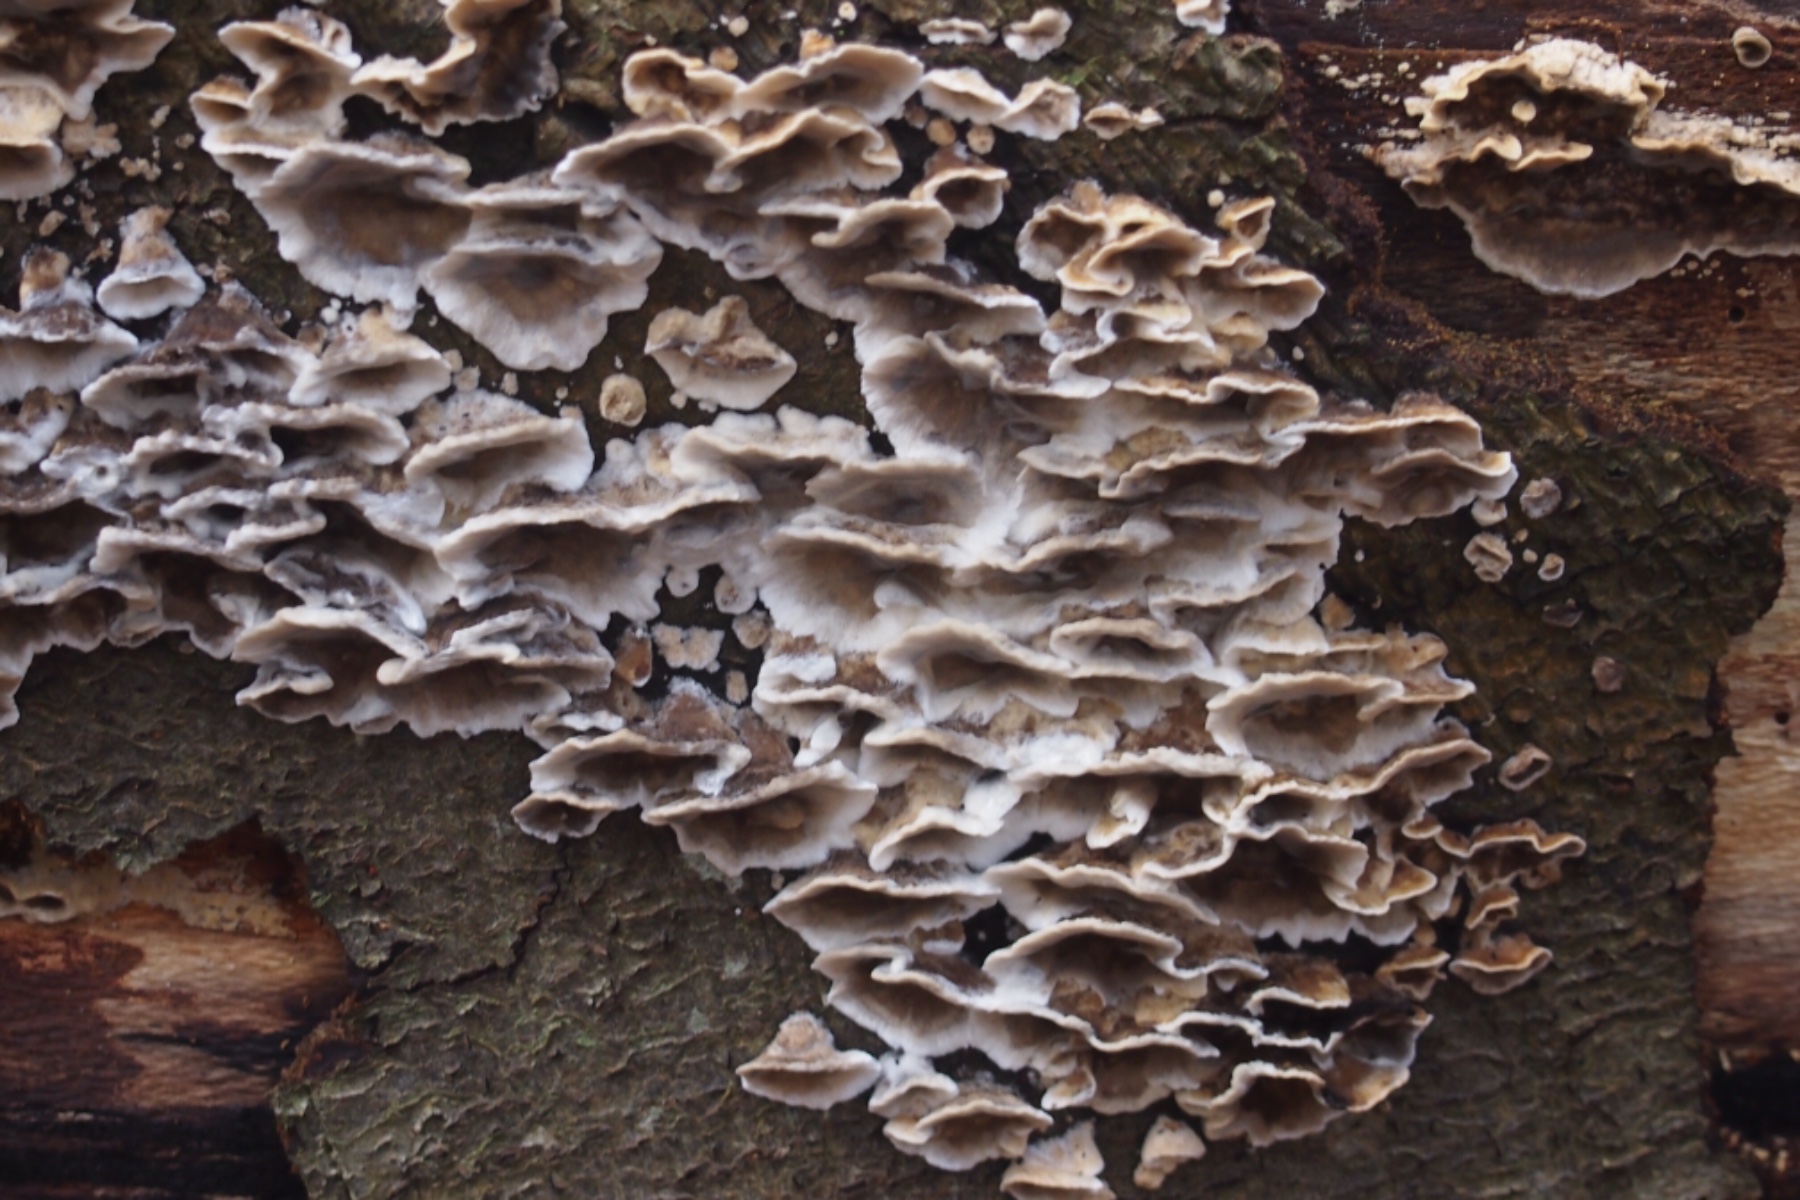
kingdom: Fungi
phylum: Basidiomycota
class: Agaricomycetes
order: Polyporales
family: Phanerochaetaceae
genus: Bjerkandera
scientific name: Bjerkandera adusta
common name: sveden sodporesvamp
